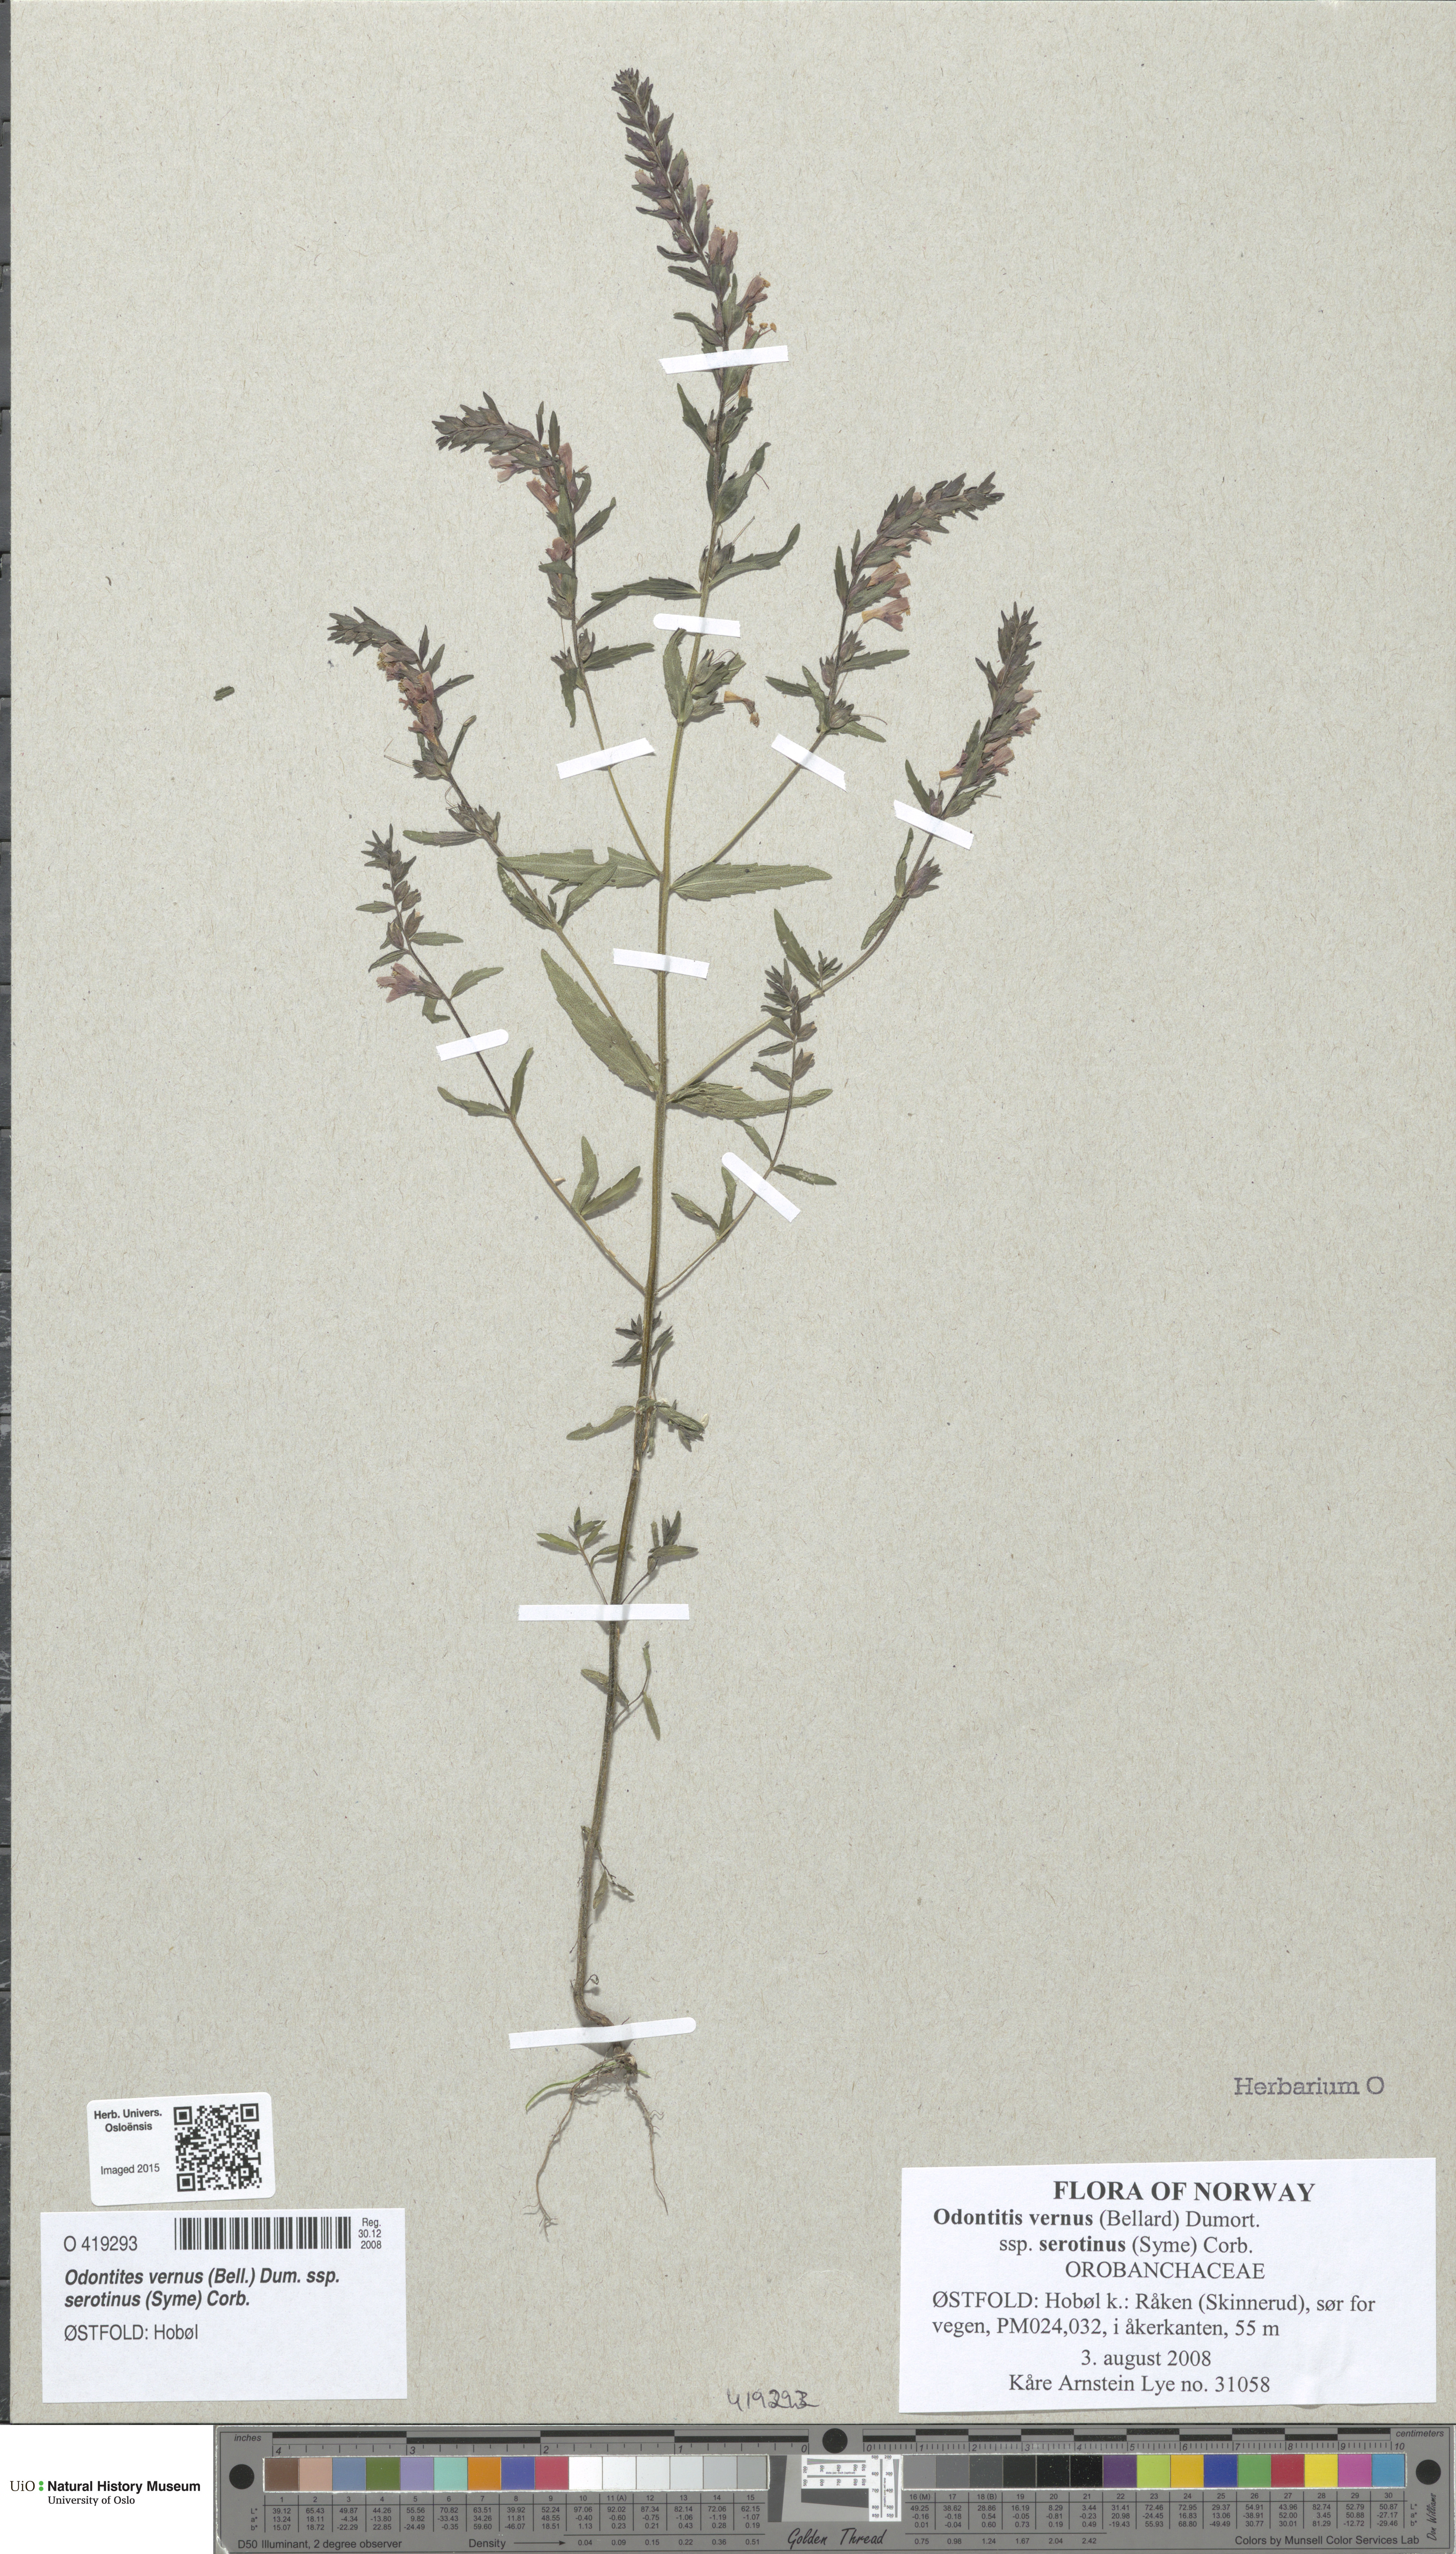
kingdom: Plantae
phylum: Tracheophyta
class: Magnoliopsida
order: Lamiales
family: Orobanchaceae
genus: Odontites
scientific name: Odontites vulgaris
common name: Broomrape
